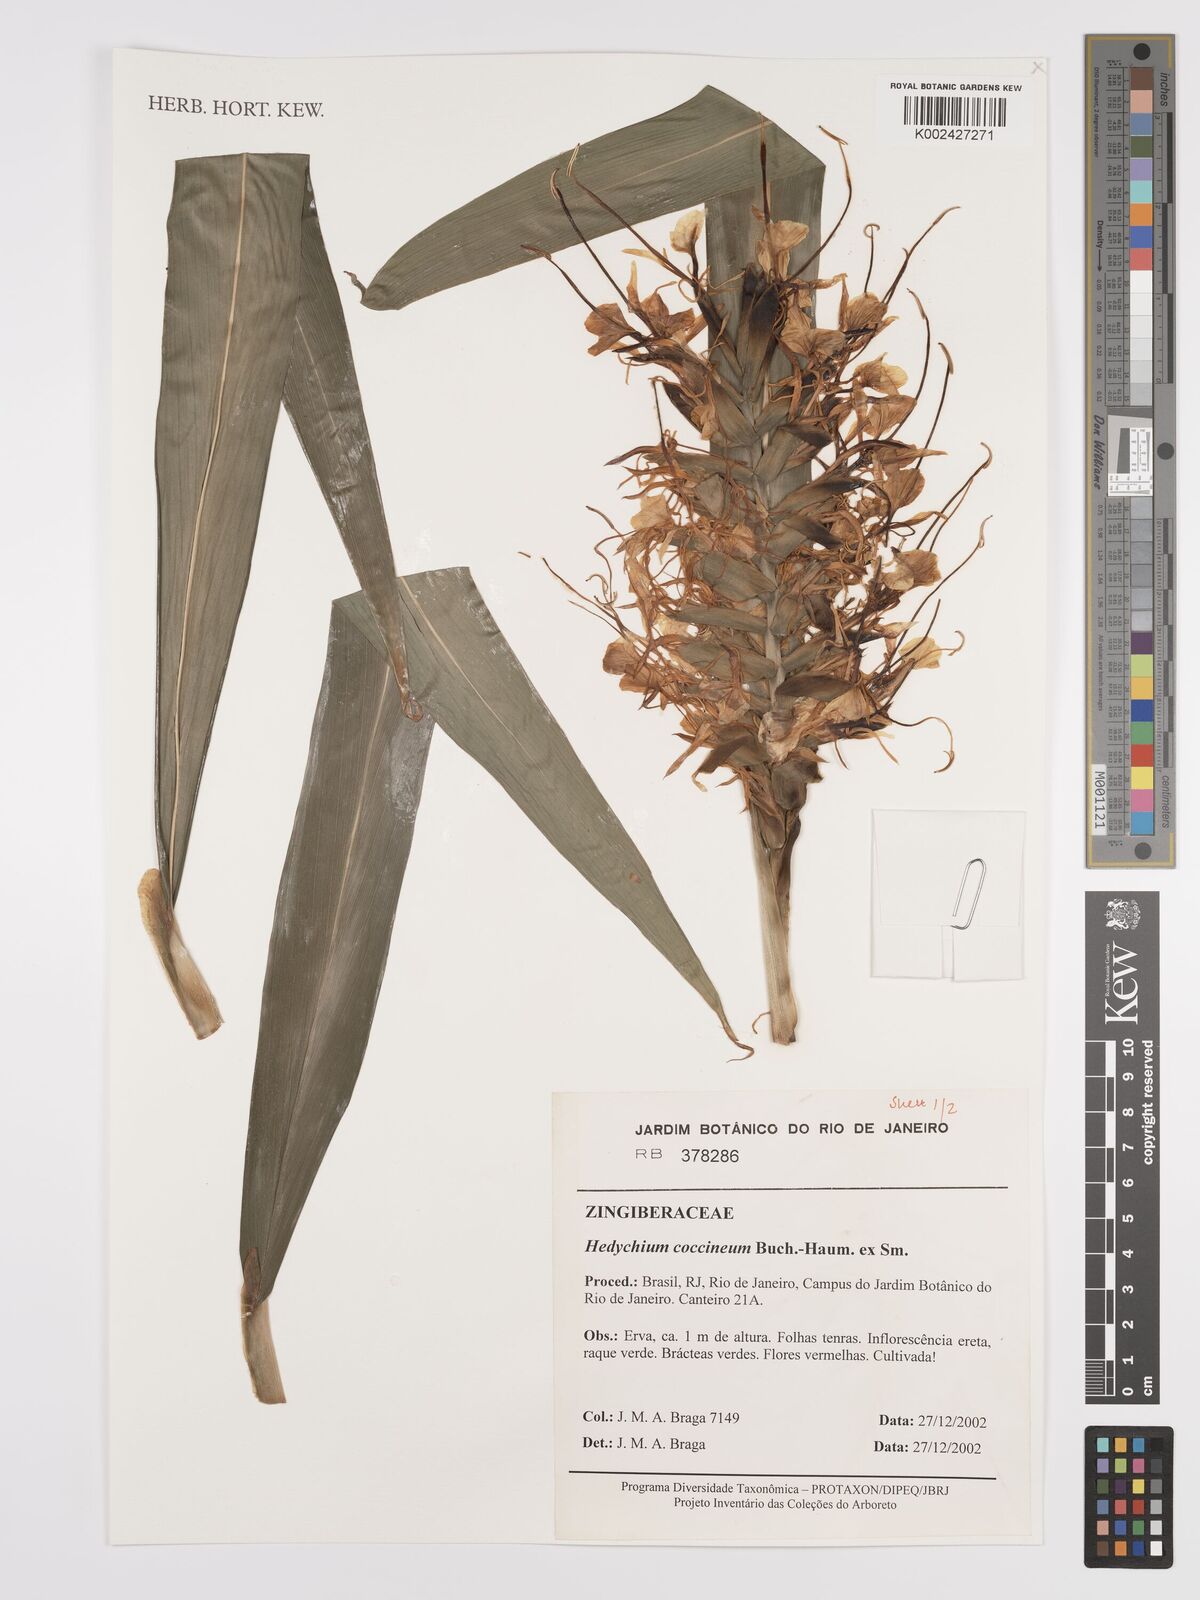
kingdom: Plantae
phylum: Tracheophyta
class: Liliopsida
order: Zingiberales
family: Zingiberaceae
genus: Hedychium
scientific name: Hedychium coccineum
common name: Red ginger-lily
